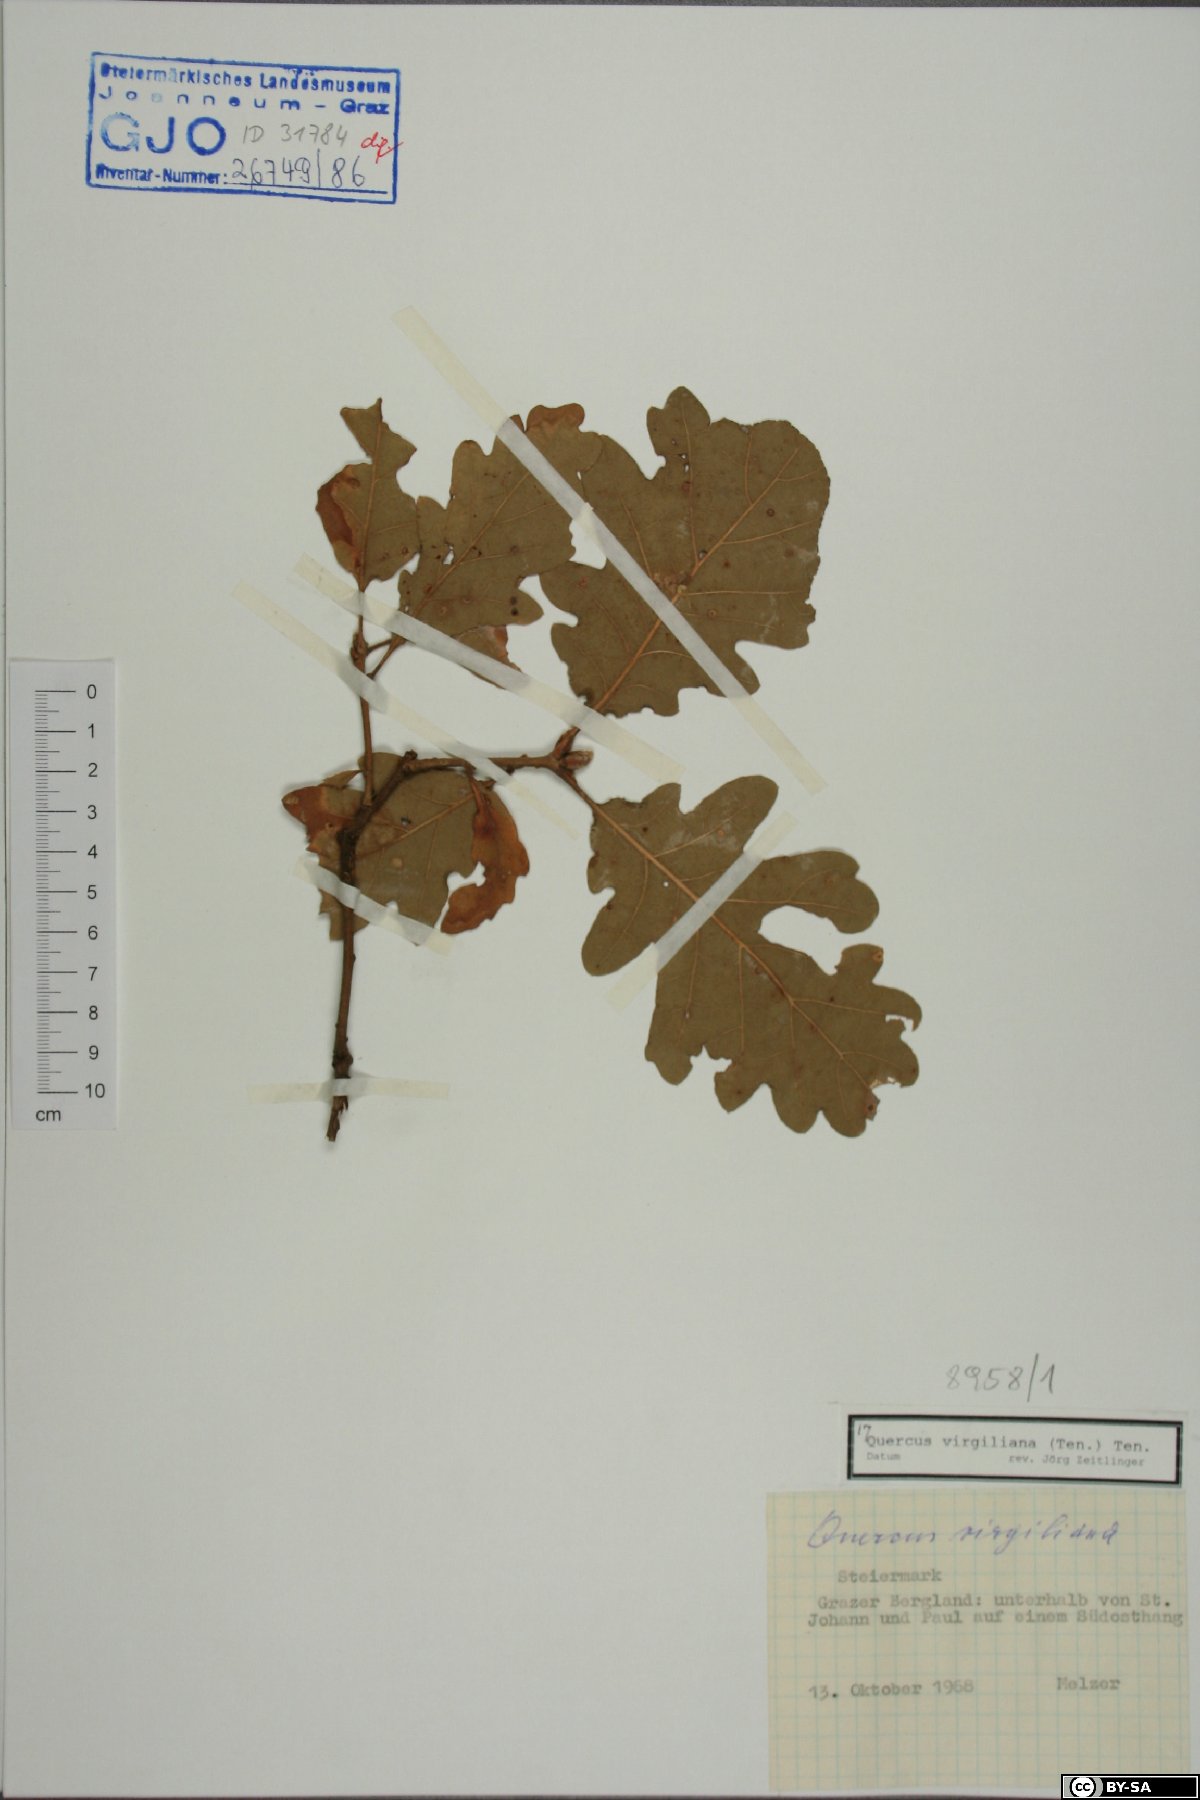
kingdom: Plantae
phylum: Tracheophyta
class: Magnoliopsida
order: Fagales
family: Fagaceae
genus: Quercus
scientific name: Quercus pubescens
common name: Downy oak
